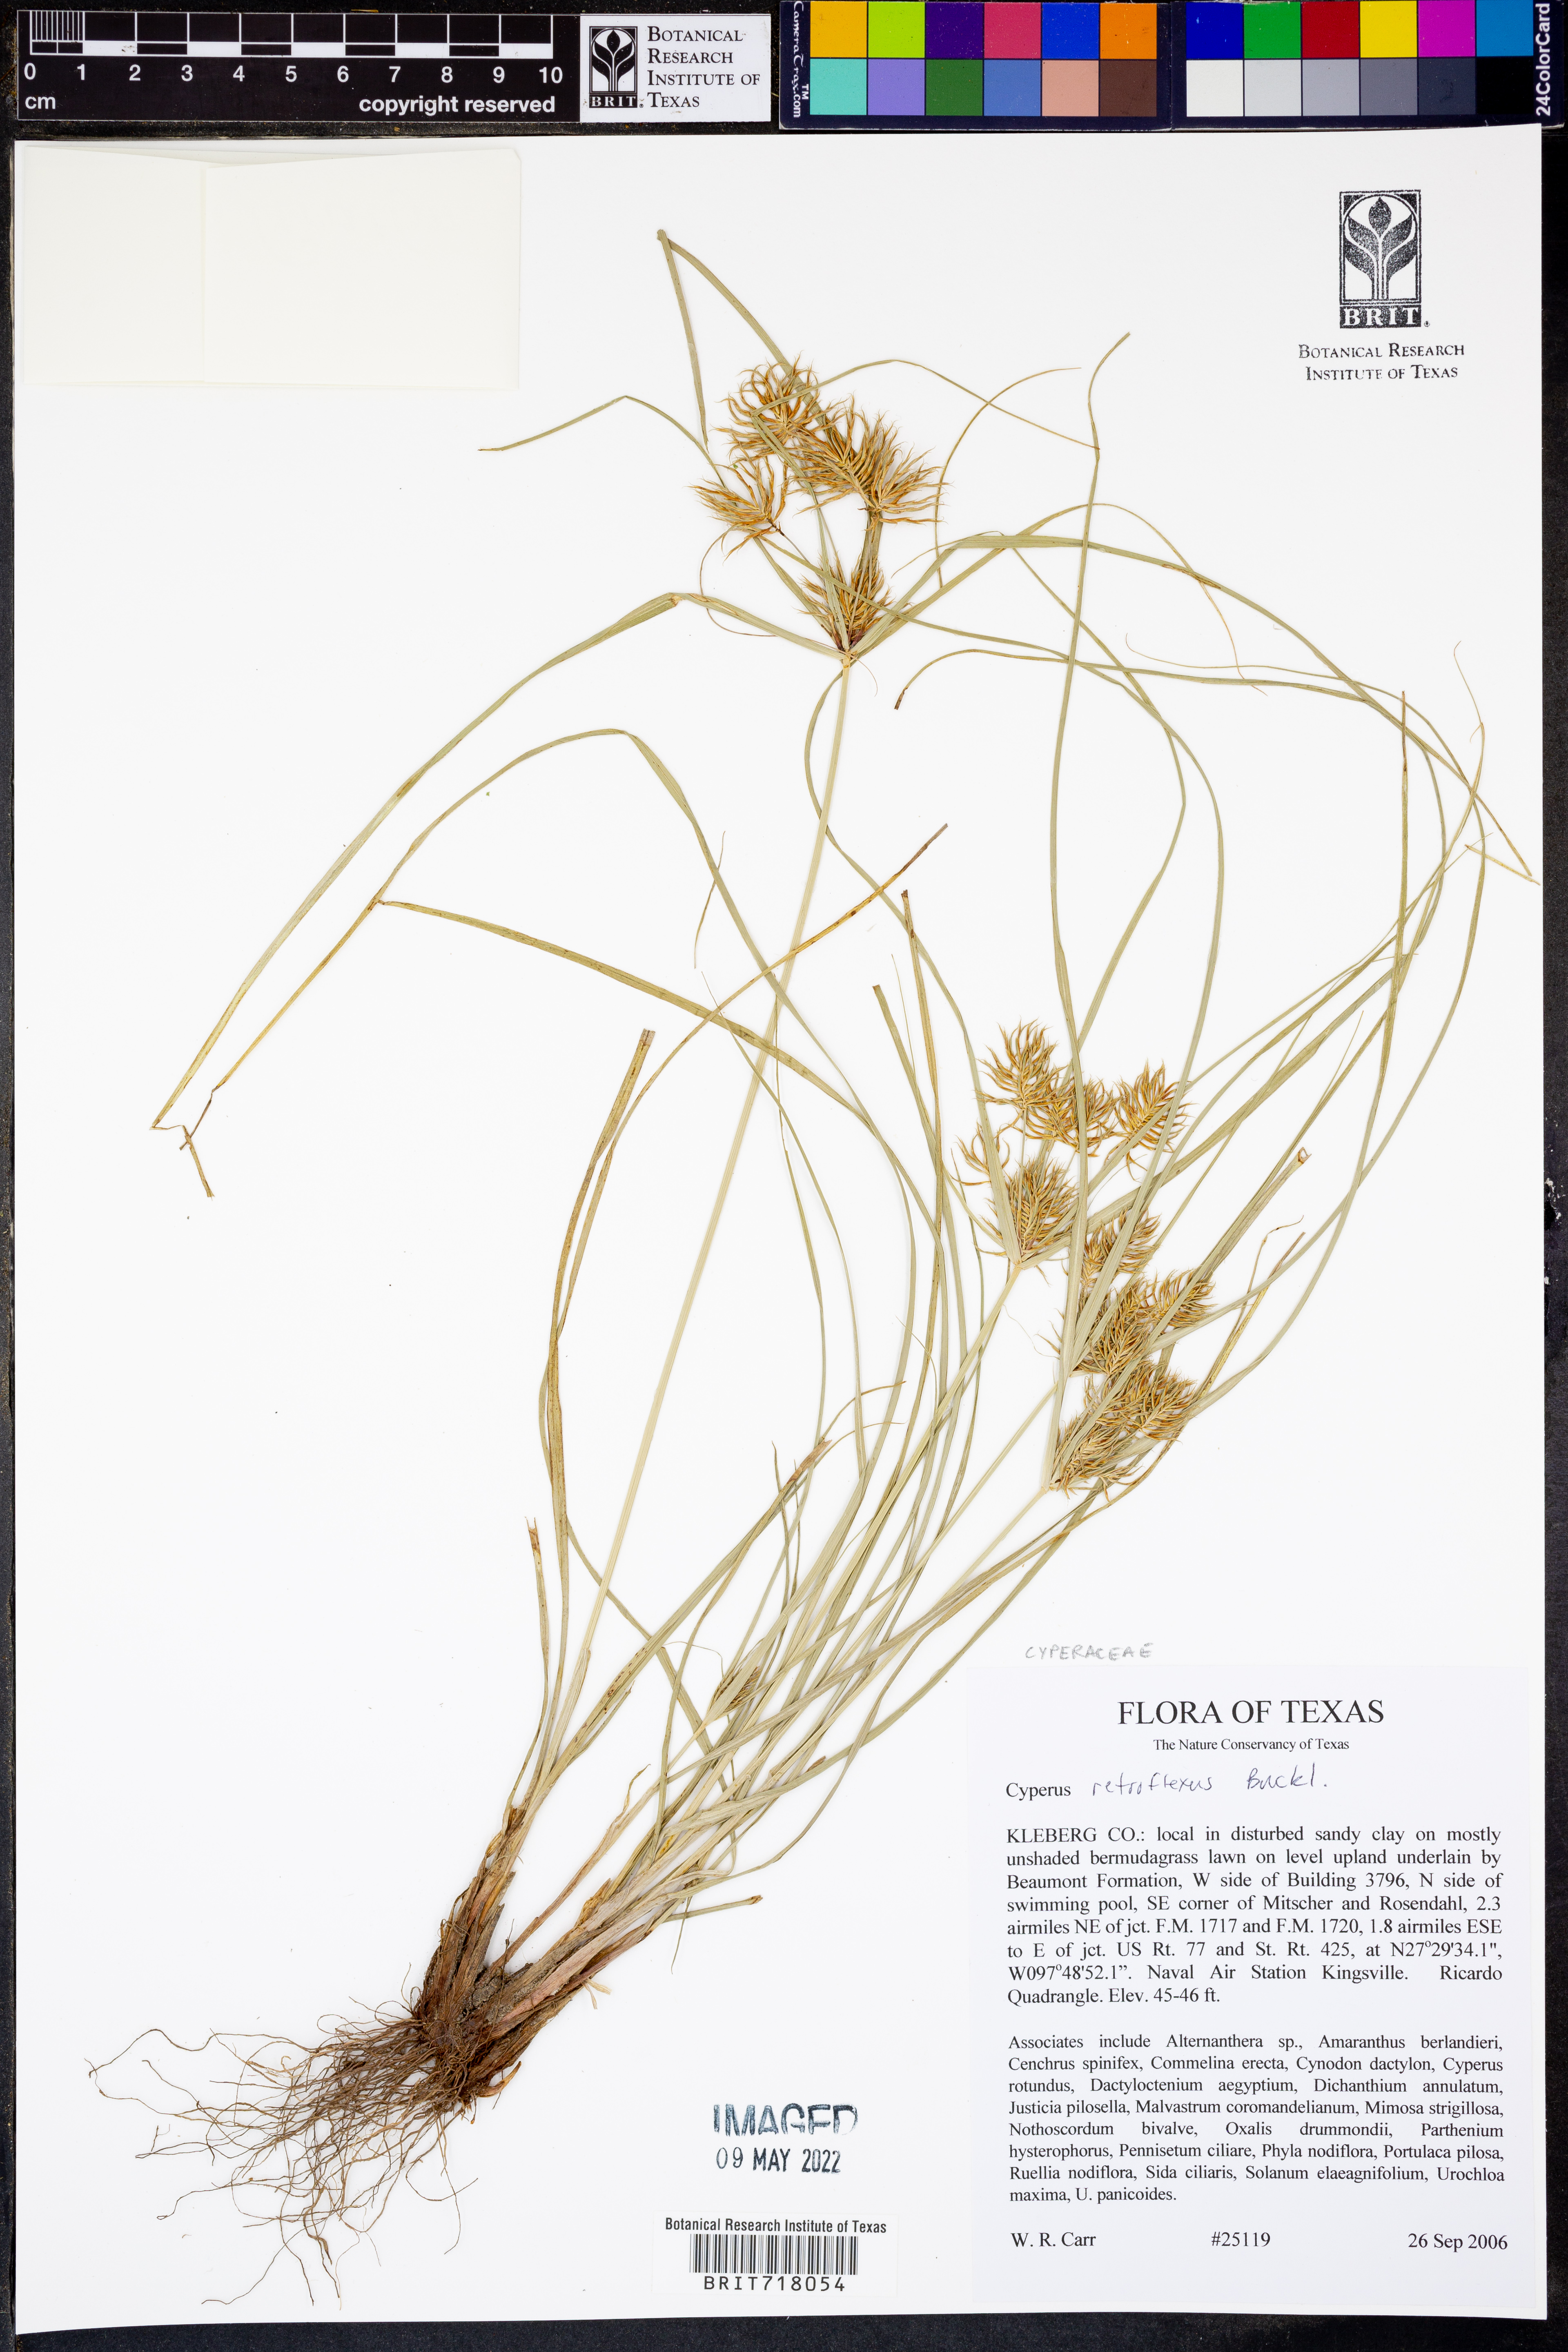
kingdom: Plantae
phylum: Tracheophyta
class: Liliopsida
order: Poales
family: Cyperaceae
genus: Cyperus
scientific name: Cyperus retroflexus
